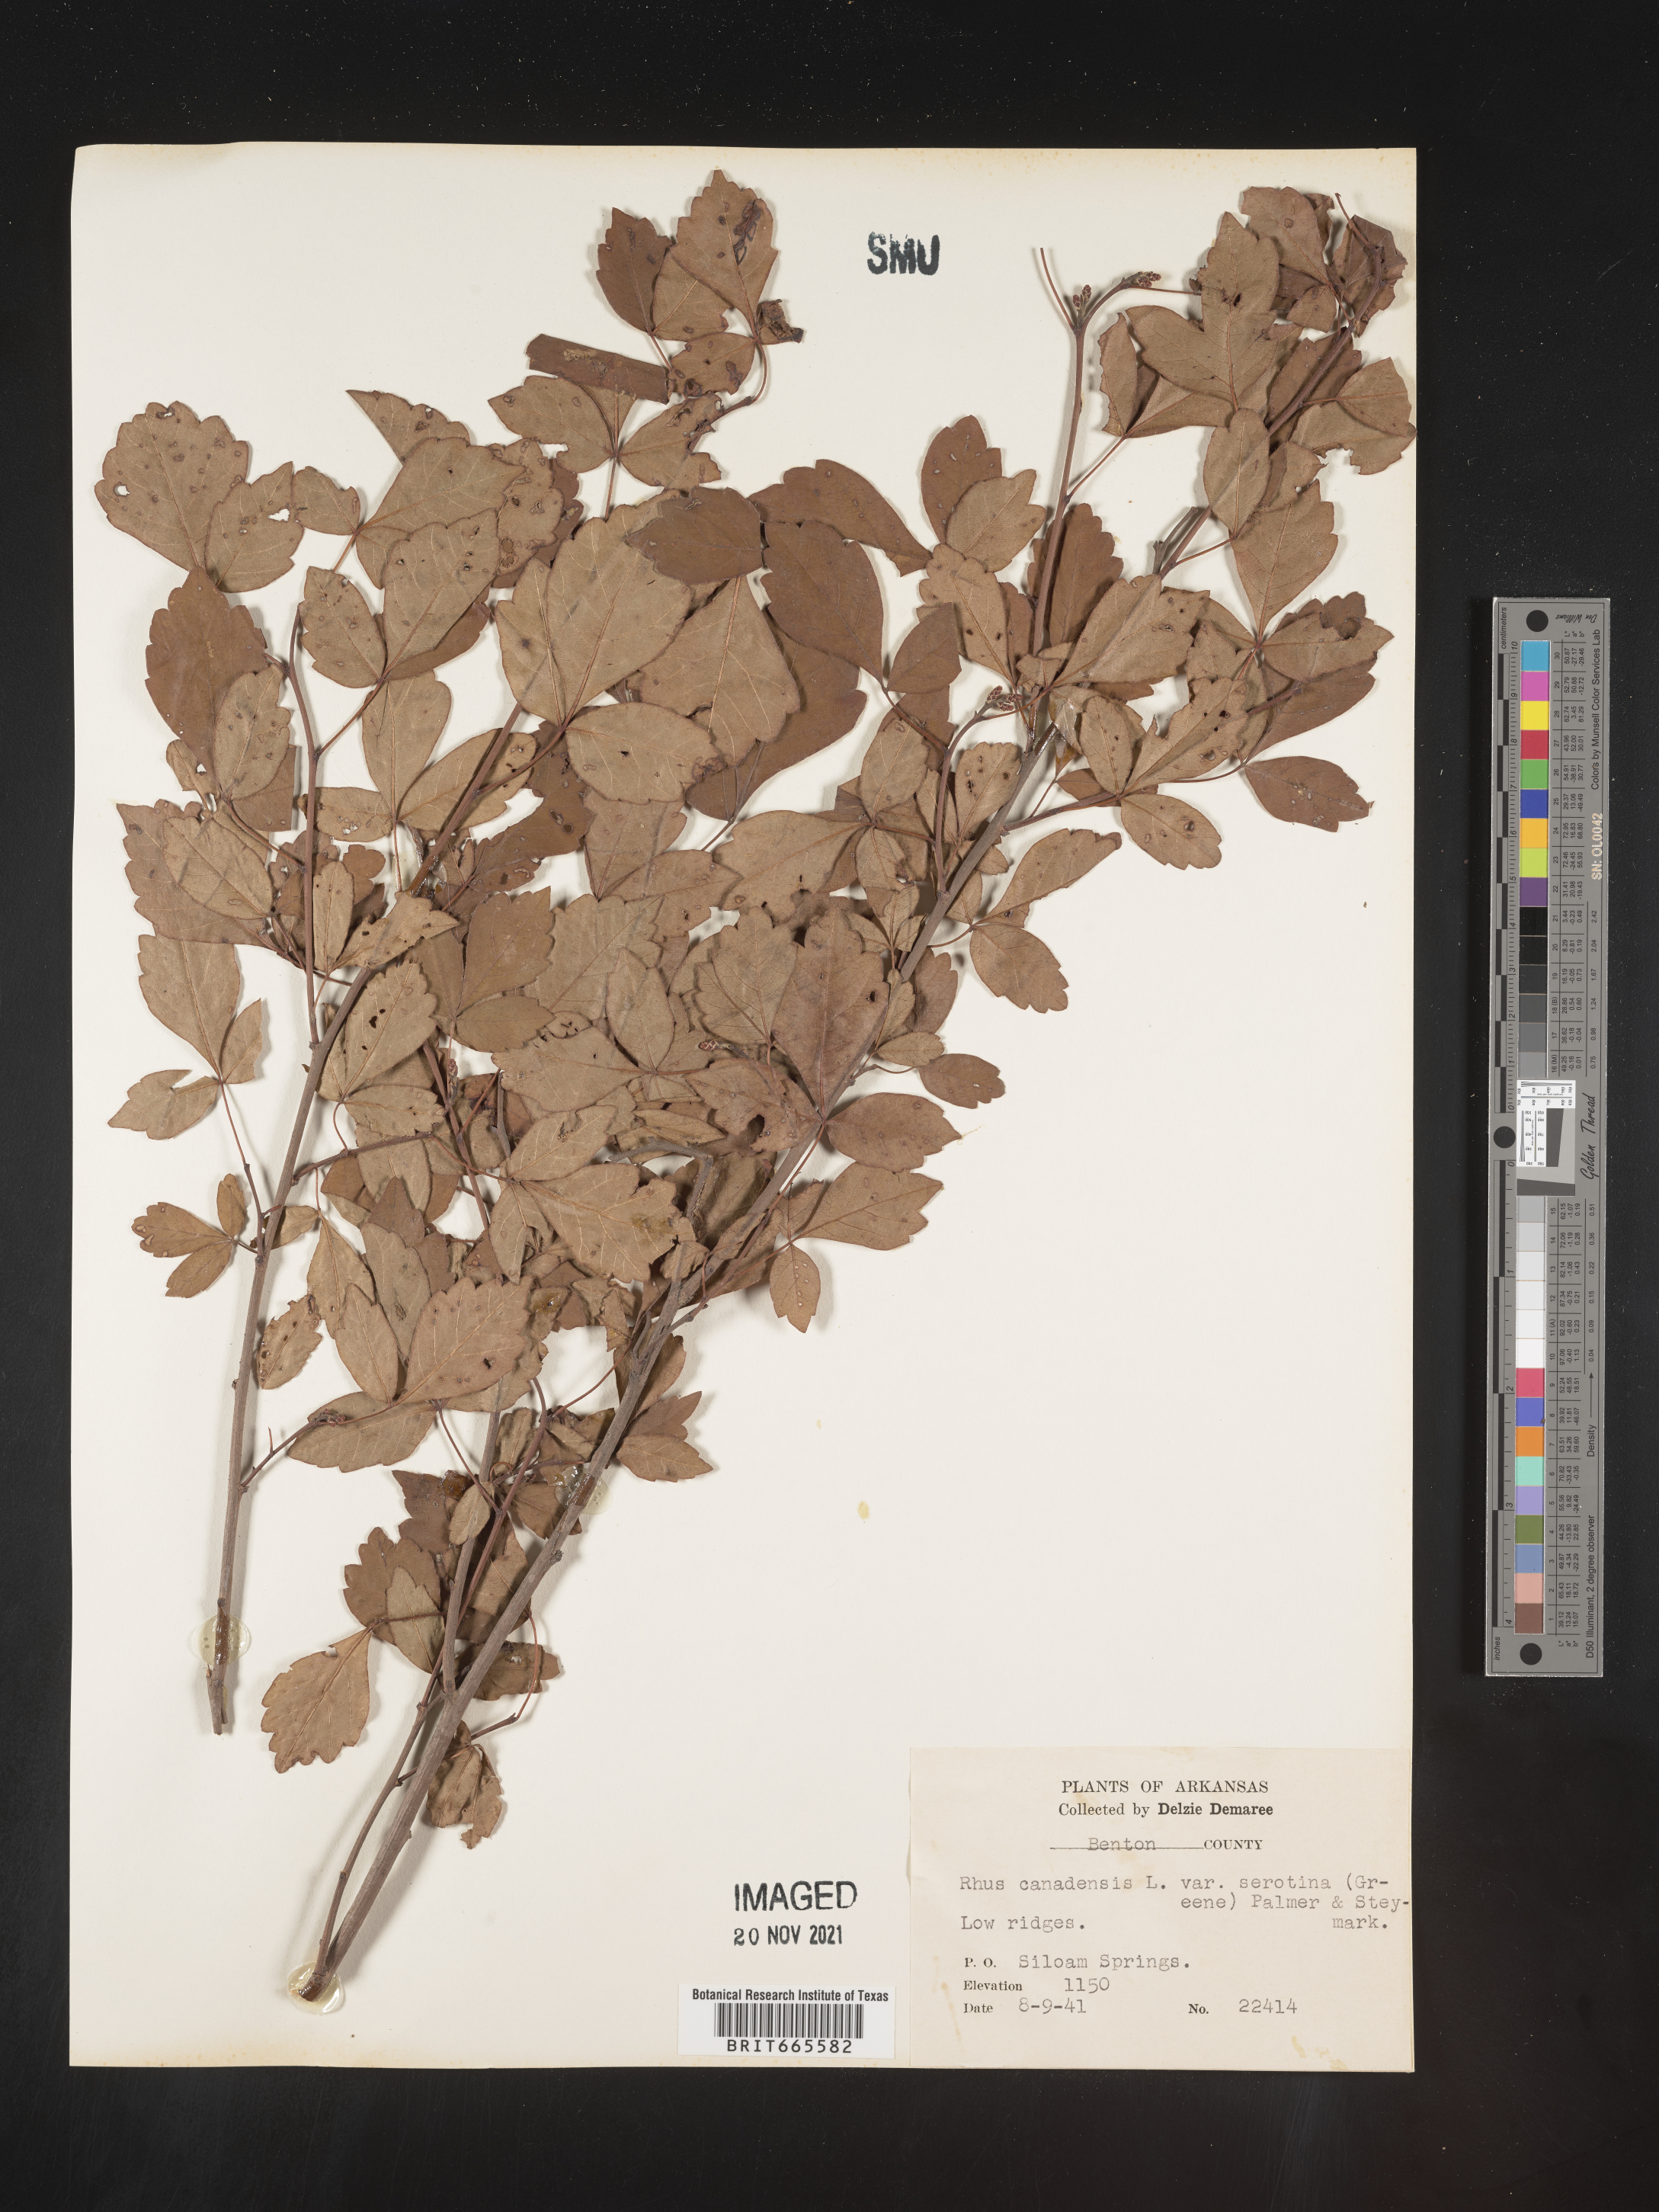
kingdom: Plantae
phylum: Tracheophyta
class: Magnoliopsida
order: Sapindales
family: Anacardiaceae
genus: Rhus
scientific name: Rhus aromatica
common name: Aromatic sumac
